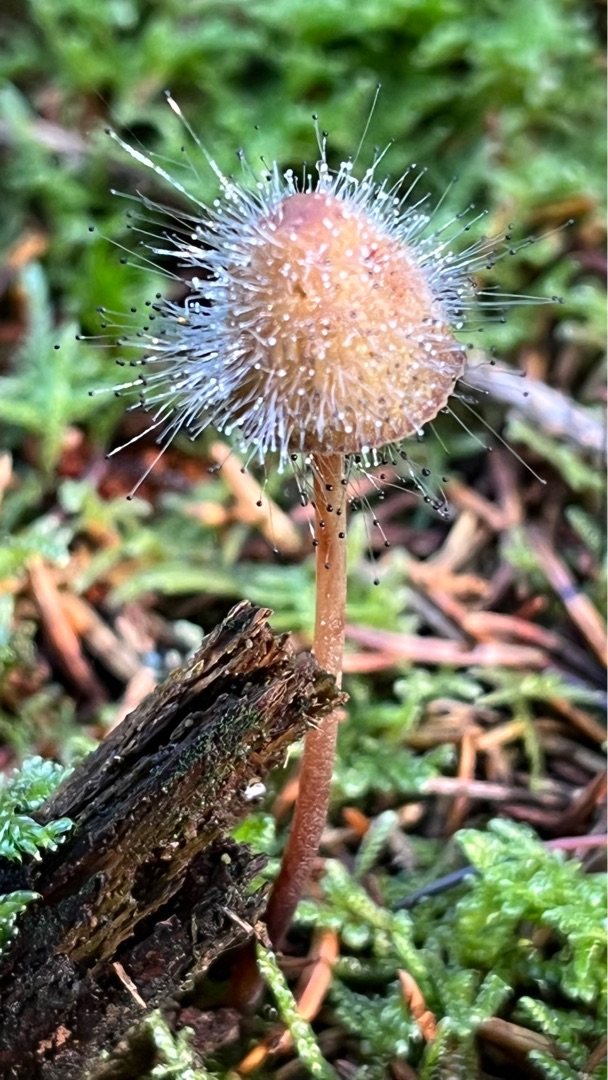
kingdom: Fungi
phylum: Mucoromycota
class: Mucoromycetes
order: Mucorales
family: Phycomycetaceae
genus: Spinellus
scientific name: Spinellus fusiger
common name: Huenål
